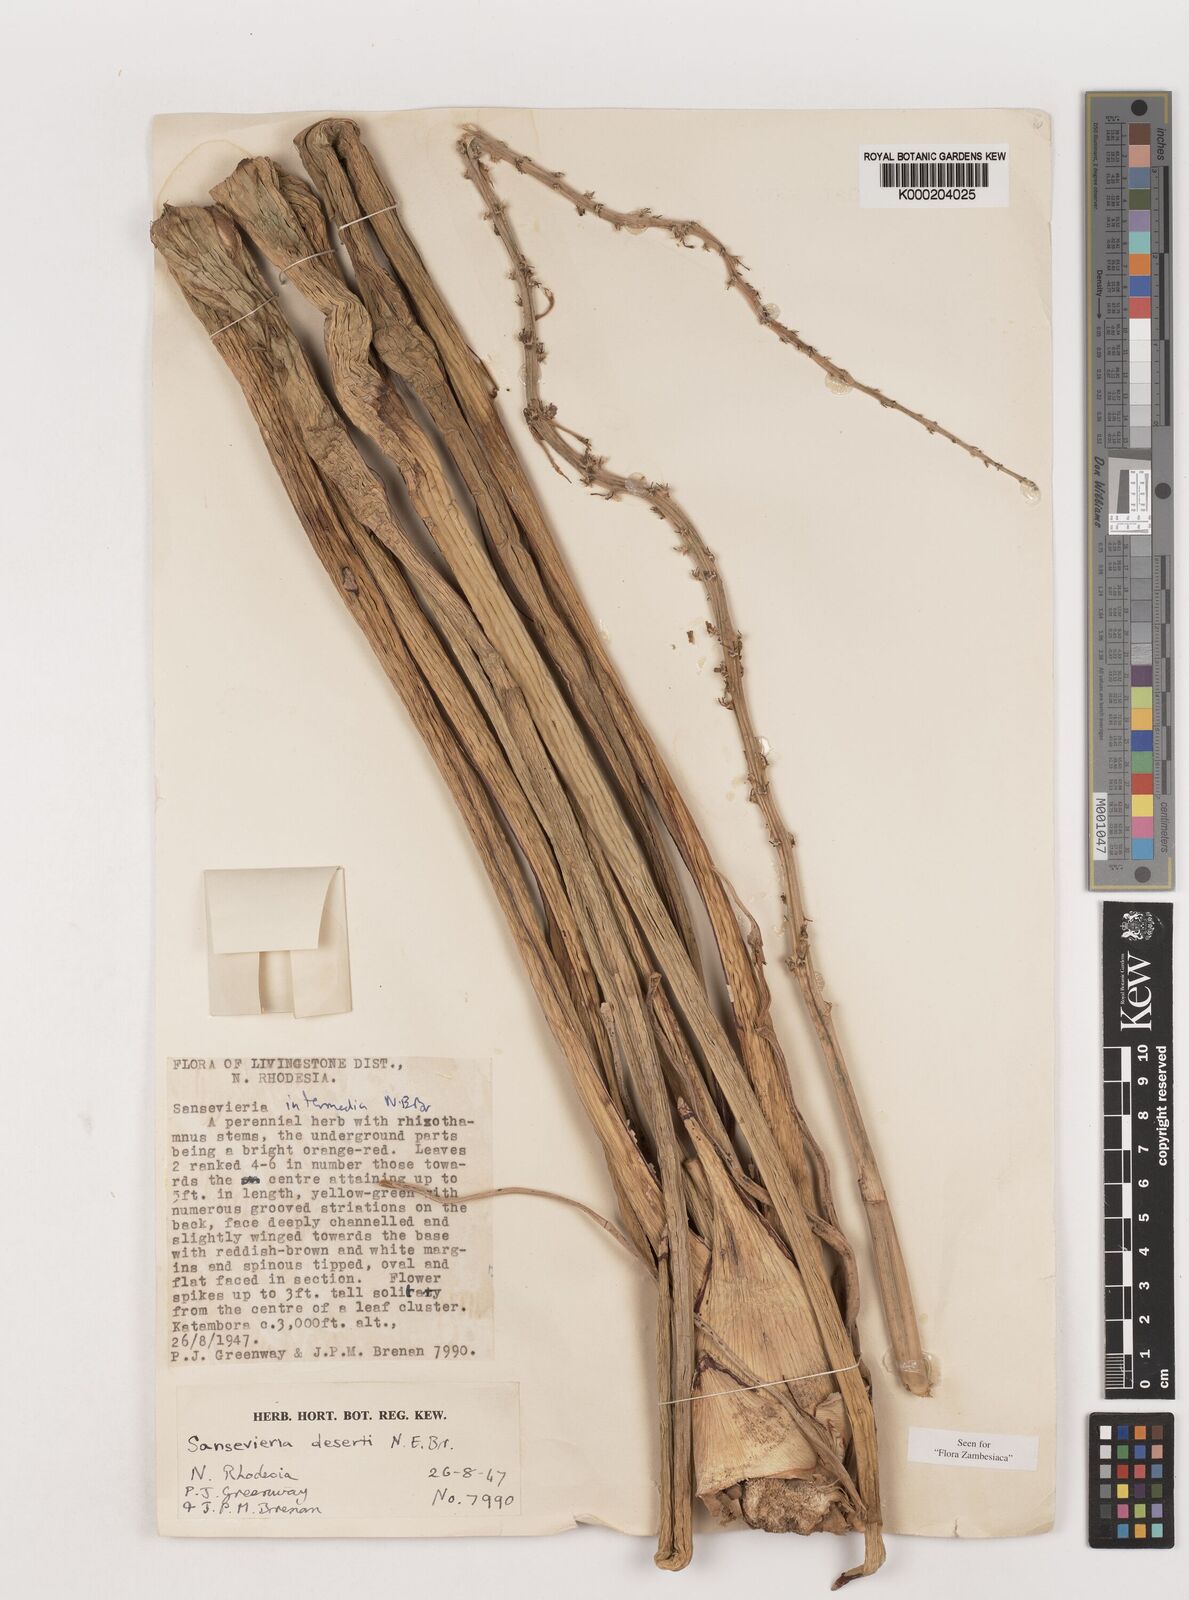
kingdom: Plantae
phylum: Tracheophyta
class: Liliopsida
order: Asparagales
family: Asparagaceae
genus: Dracaena
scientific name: Dracaena pearsonii
